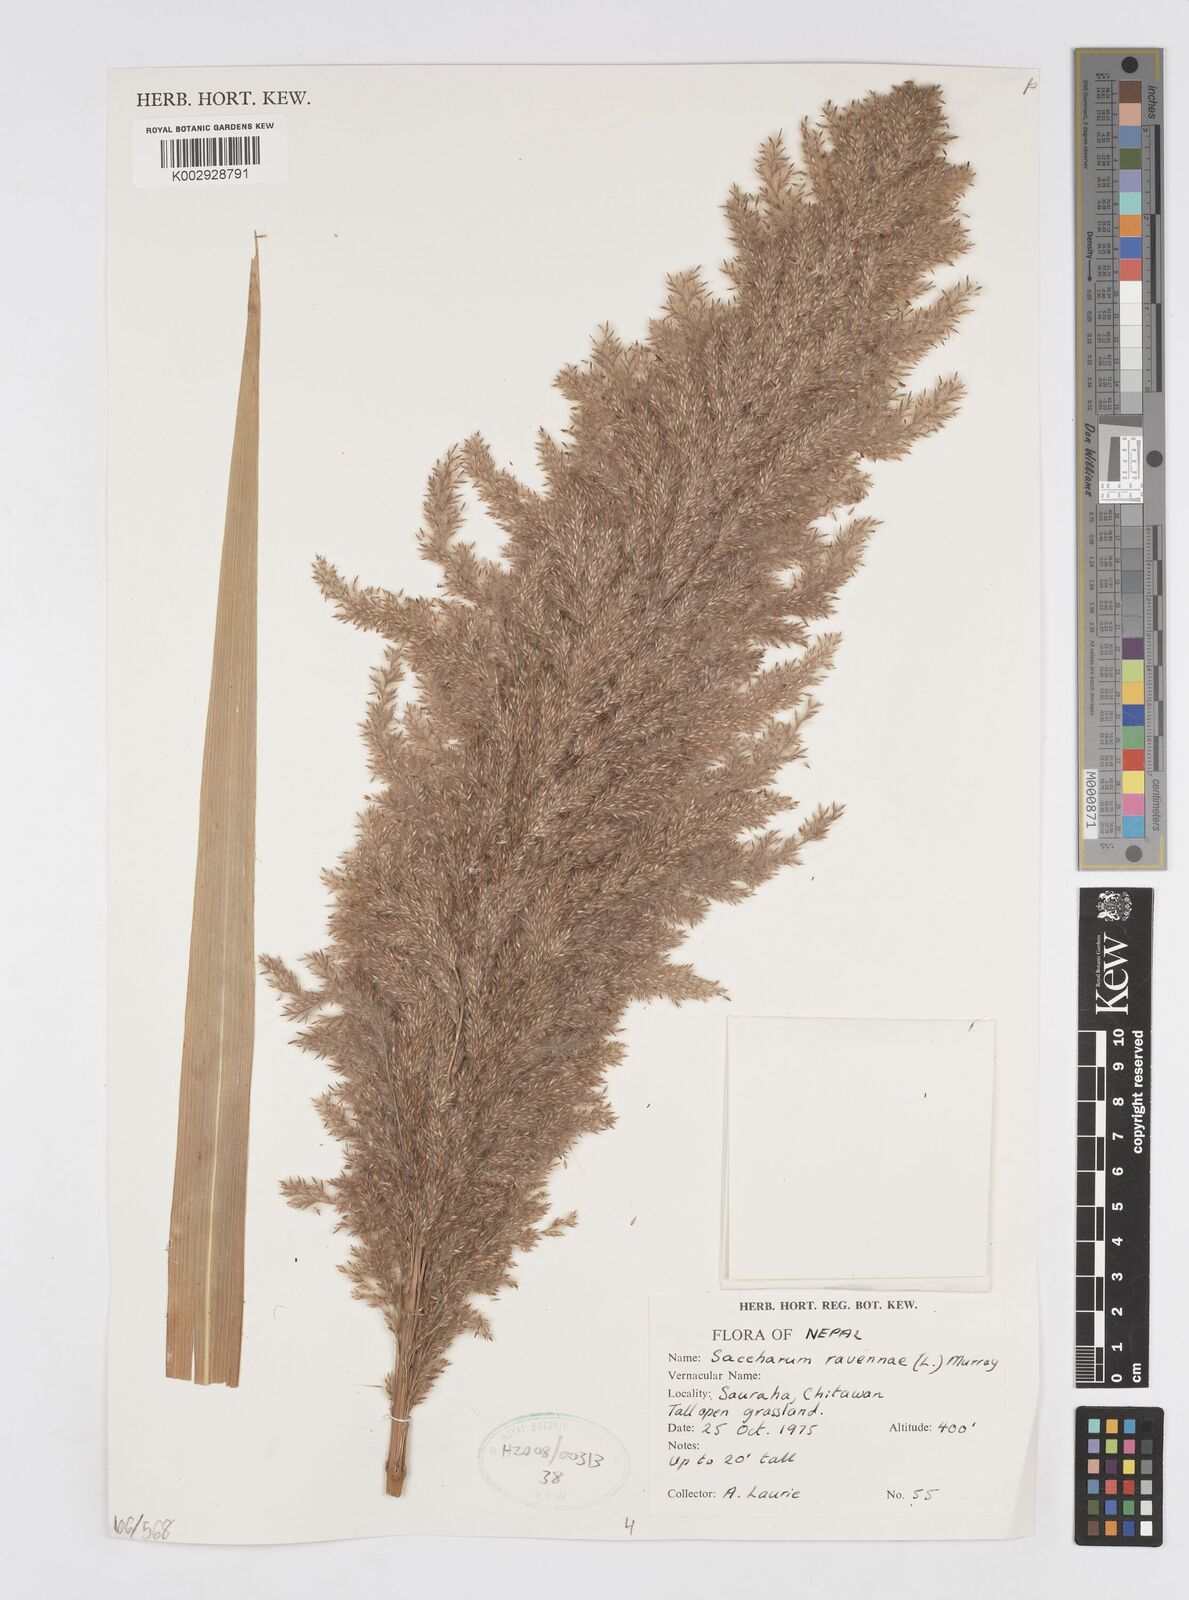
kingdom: Plantae
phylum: Tracheophyta
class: Liliopsida
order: Poales
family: Poaceae
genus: Tripidium
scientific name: Tripidium ravennae
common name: Ravenna grass
